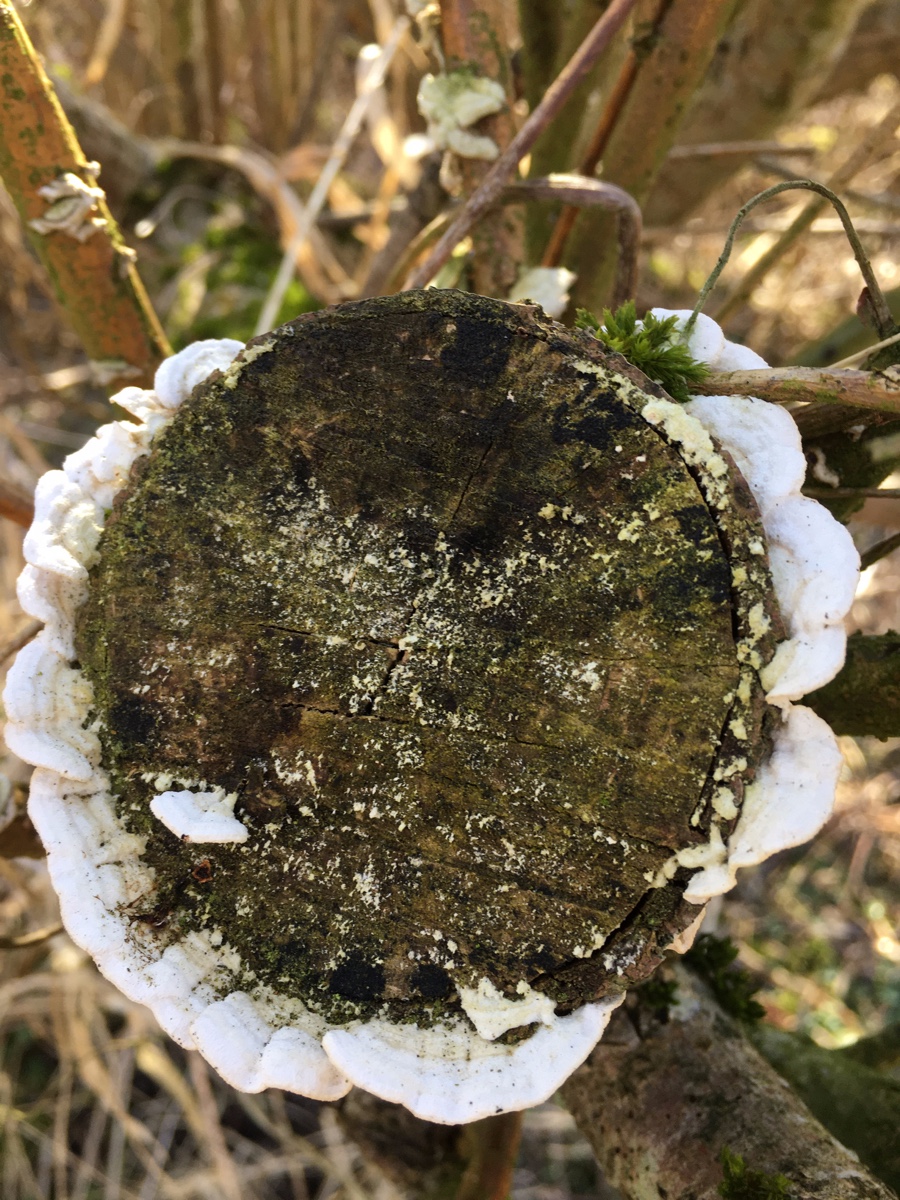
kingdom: Fungi
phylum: Basidiomycota
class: Agaricomycetes
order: Polyporales
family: Irpicaceae
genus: Byssomerulius
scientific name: Byssomerulius corium
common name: læder-åresvamp
